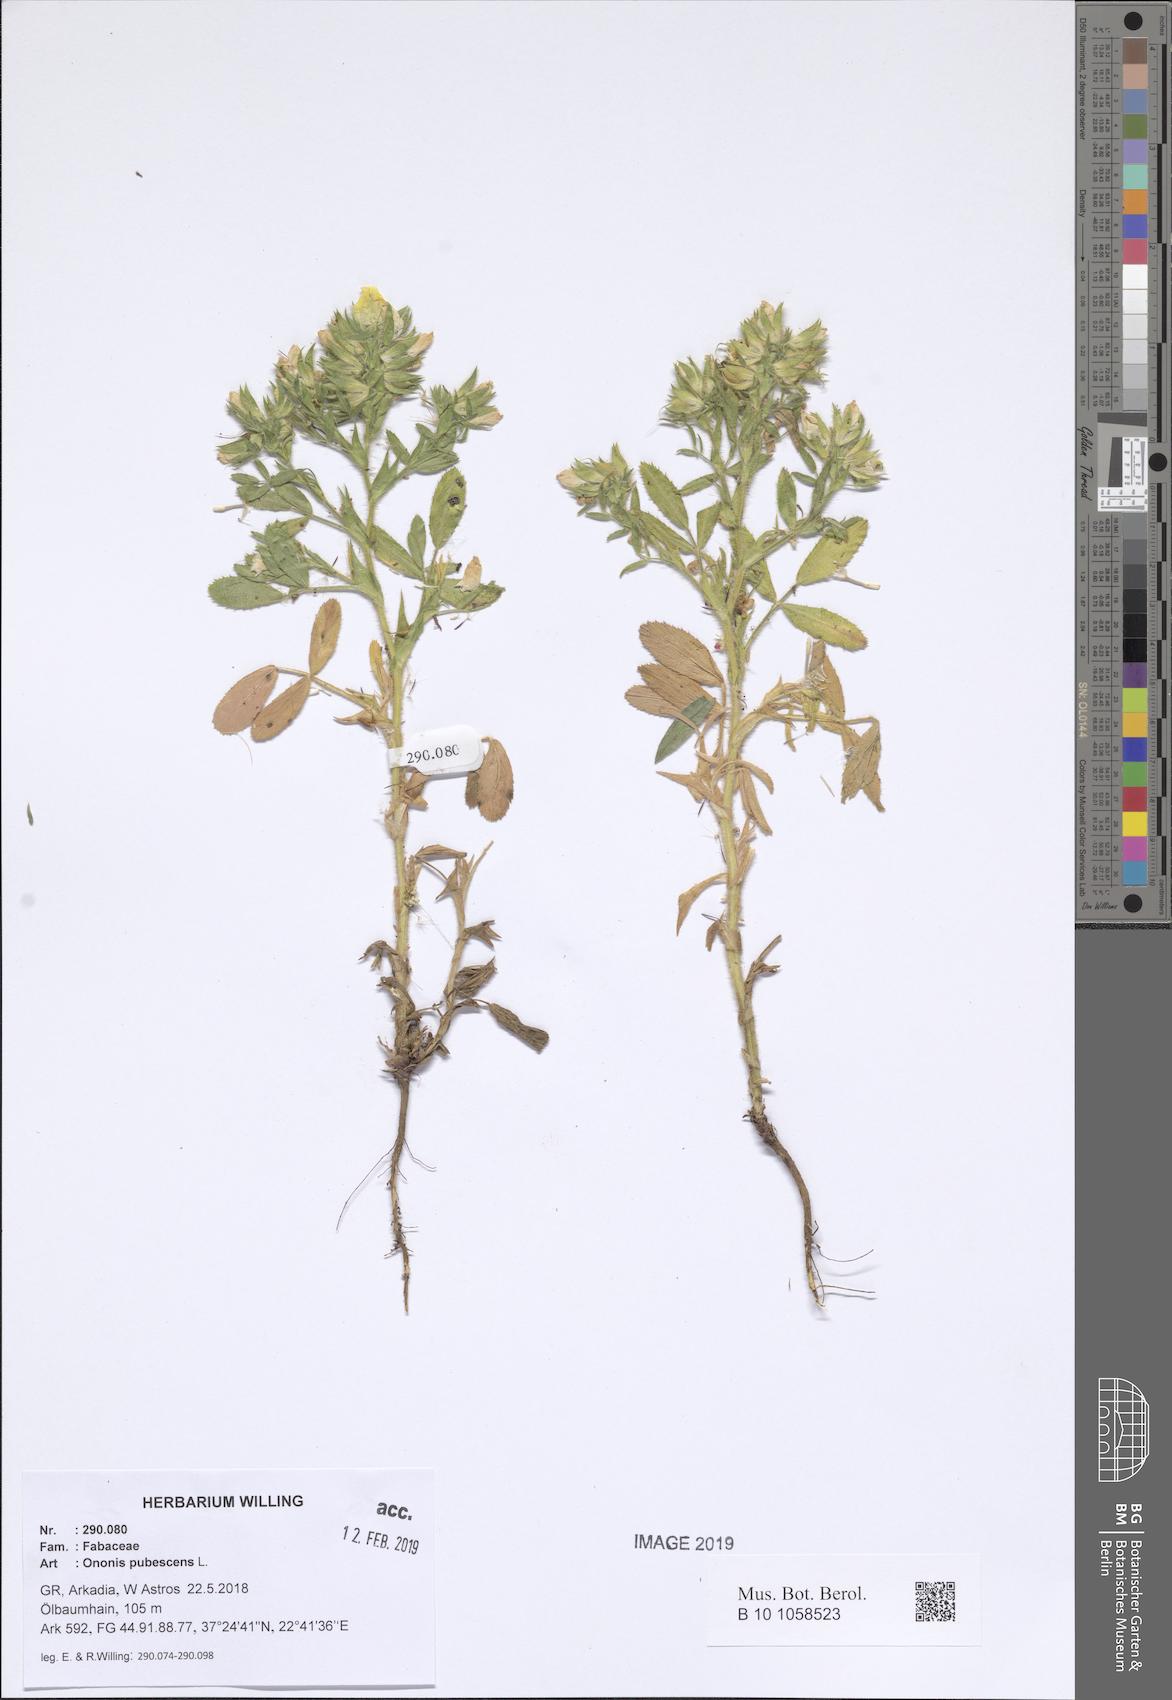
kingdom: Plantae
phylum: Tracheophyta
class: Magnoliopsida
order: Fabales
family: Fabaceae
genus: Ononis
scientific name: Ononis pubescens
